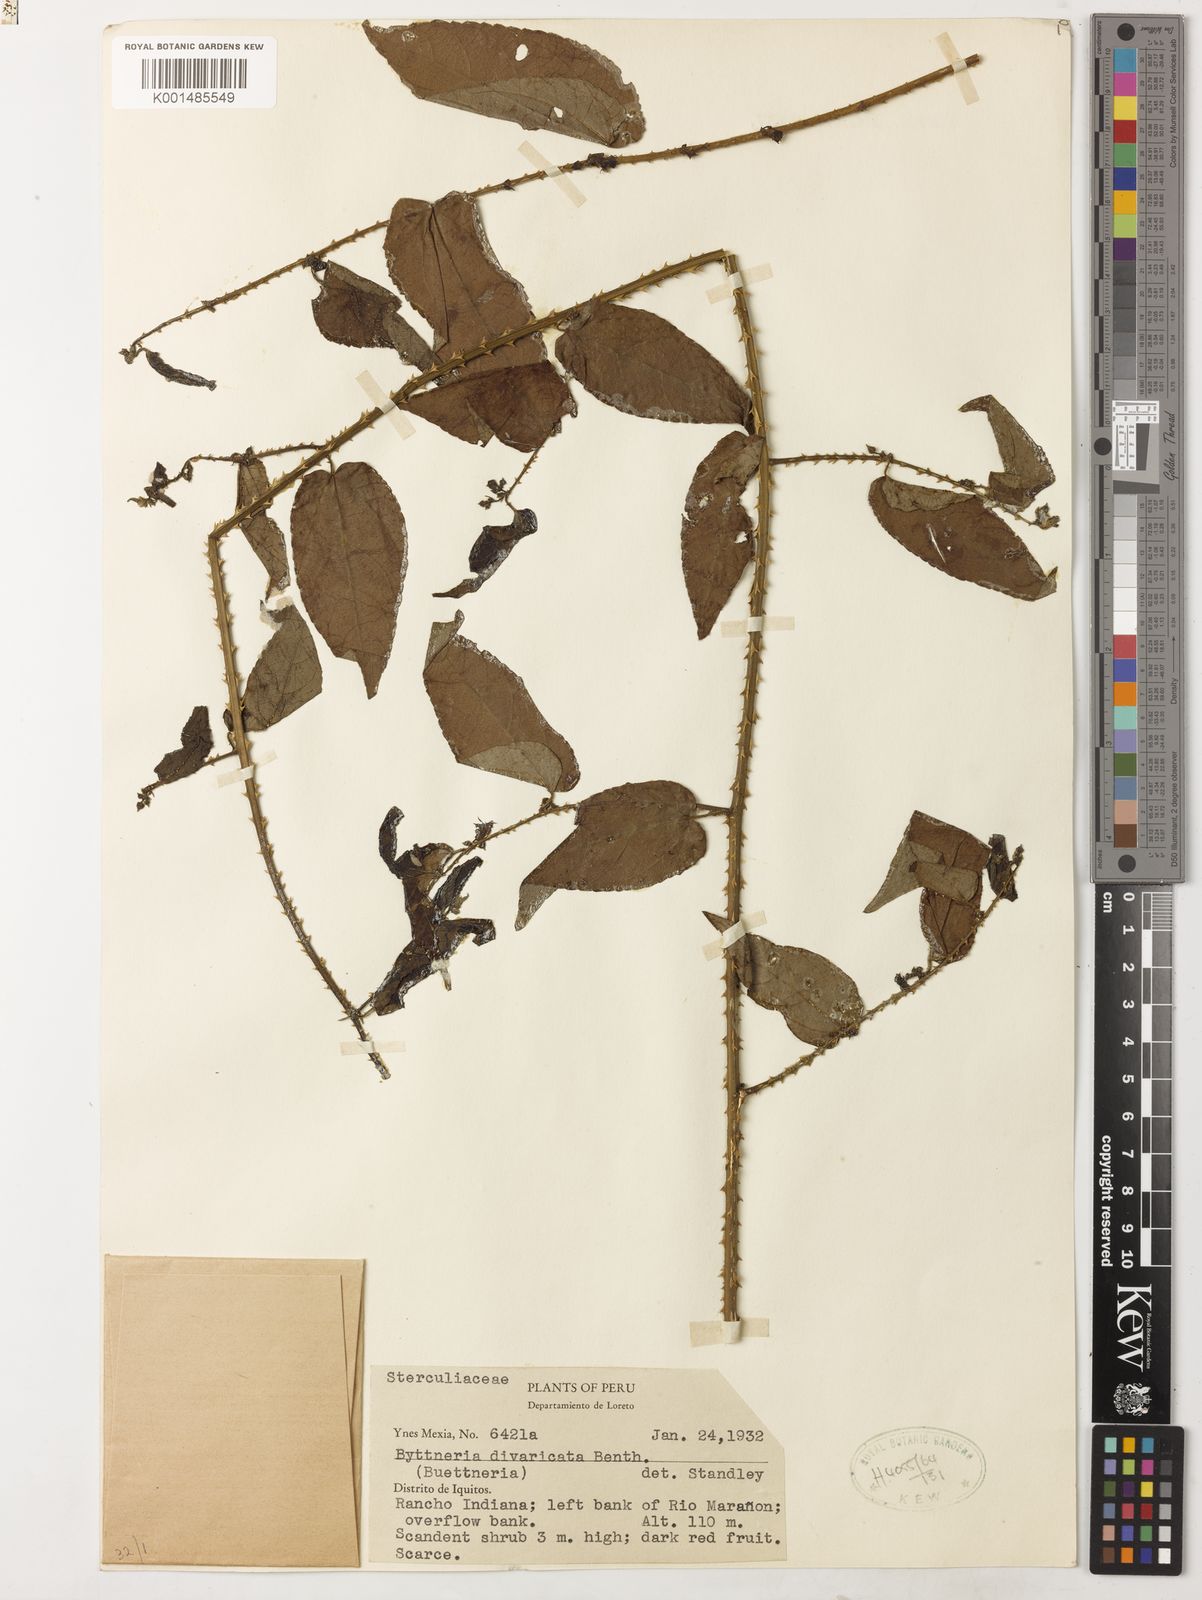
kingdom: Plantae
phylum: Tracheophyta
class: Magnoliopsida
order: Malvales
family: Malvaceae
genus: Byttneria
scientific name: Byttneria divaricata
